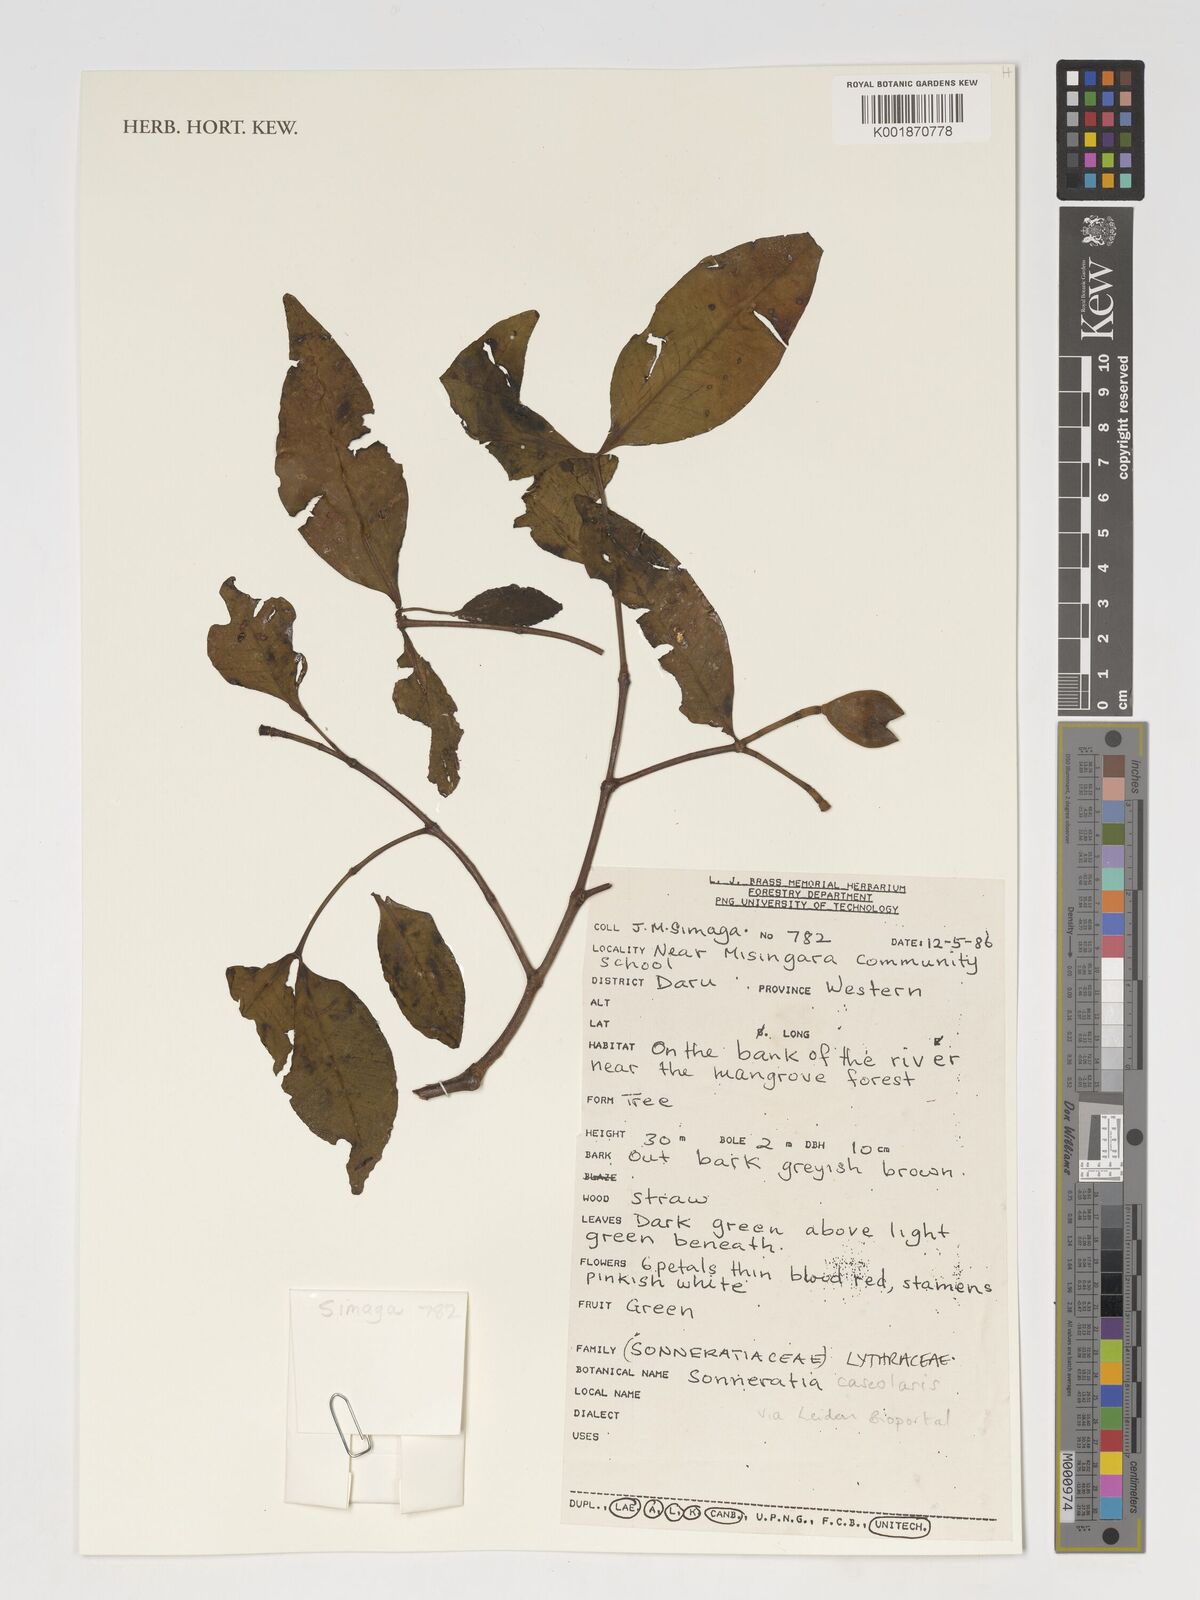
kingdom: Plantae
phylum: Tracheophyta
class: Magnoliopsida
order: Myrtales
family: Lythraceae
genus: Sonneratia
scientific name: Sonneratia
